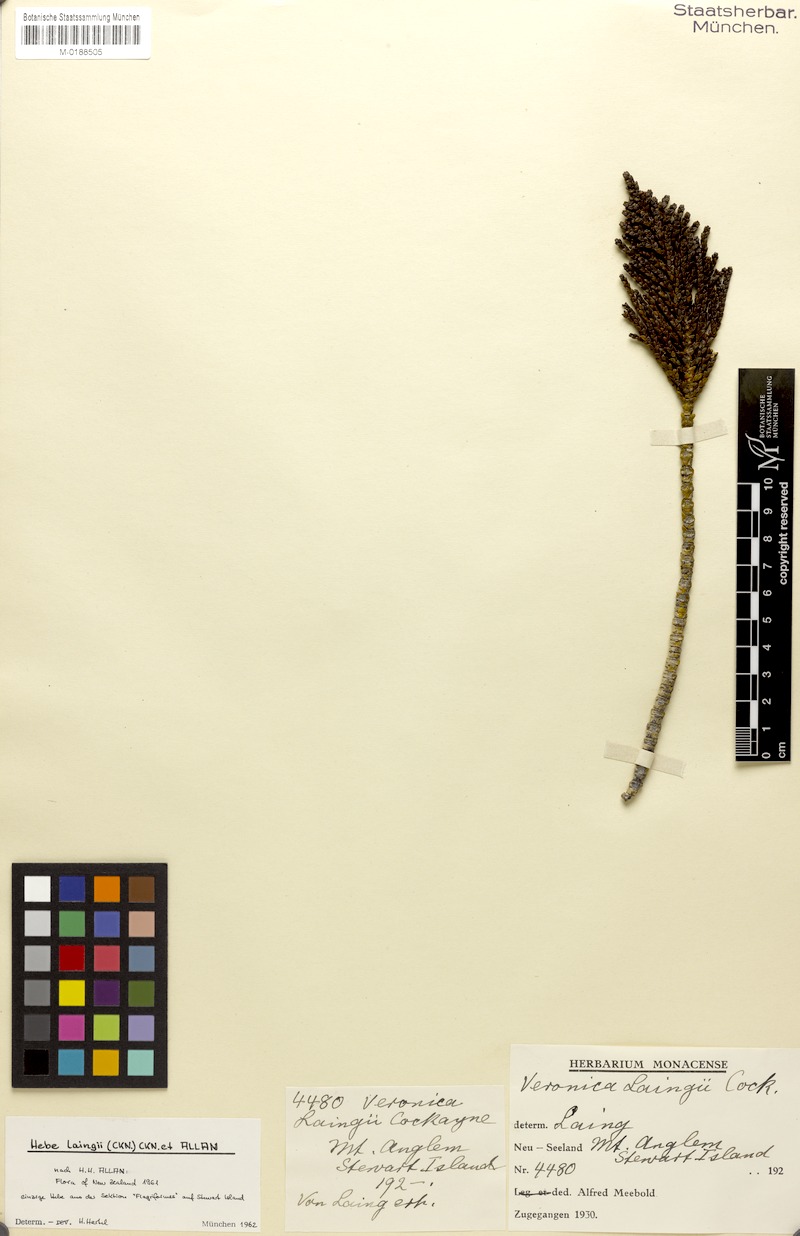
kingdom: Plantae
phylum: Tracheophyta
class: Magnoliopsida
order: Lamiales
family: Plantaginaceae
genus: Veronica
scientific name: Veronica hectorii
